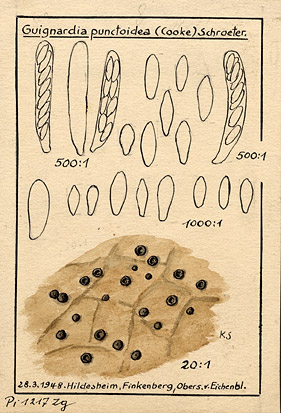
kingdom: Fungi
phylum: Ascomycota
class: Dothideomycetes
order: Botryosphaeriales
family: Phyllostictaceae
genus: Guignardia
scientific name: Guignardia punctoidea
